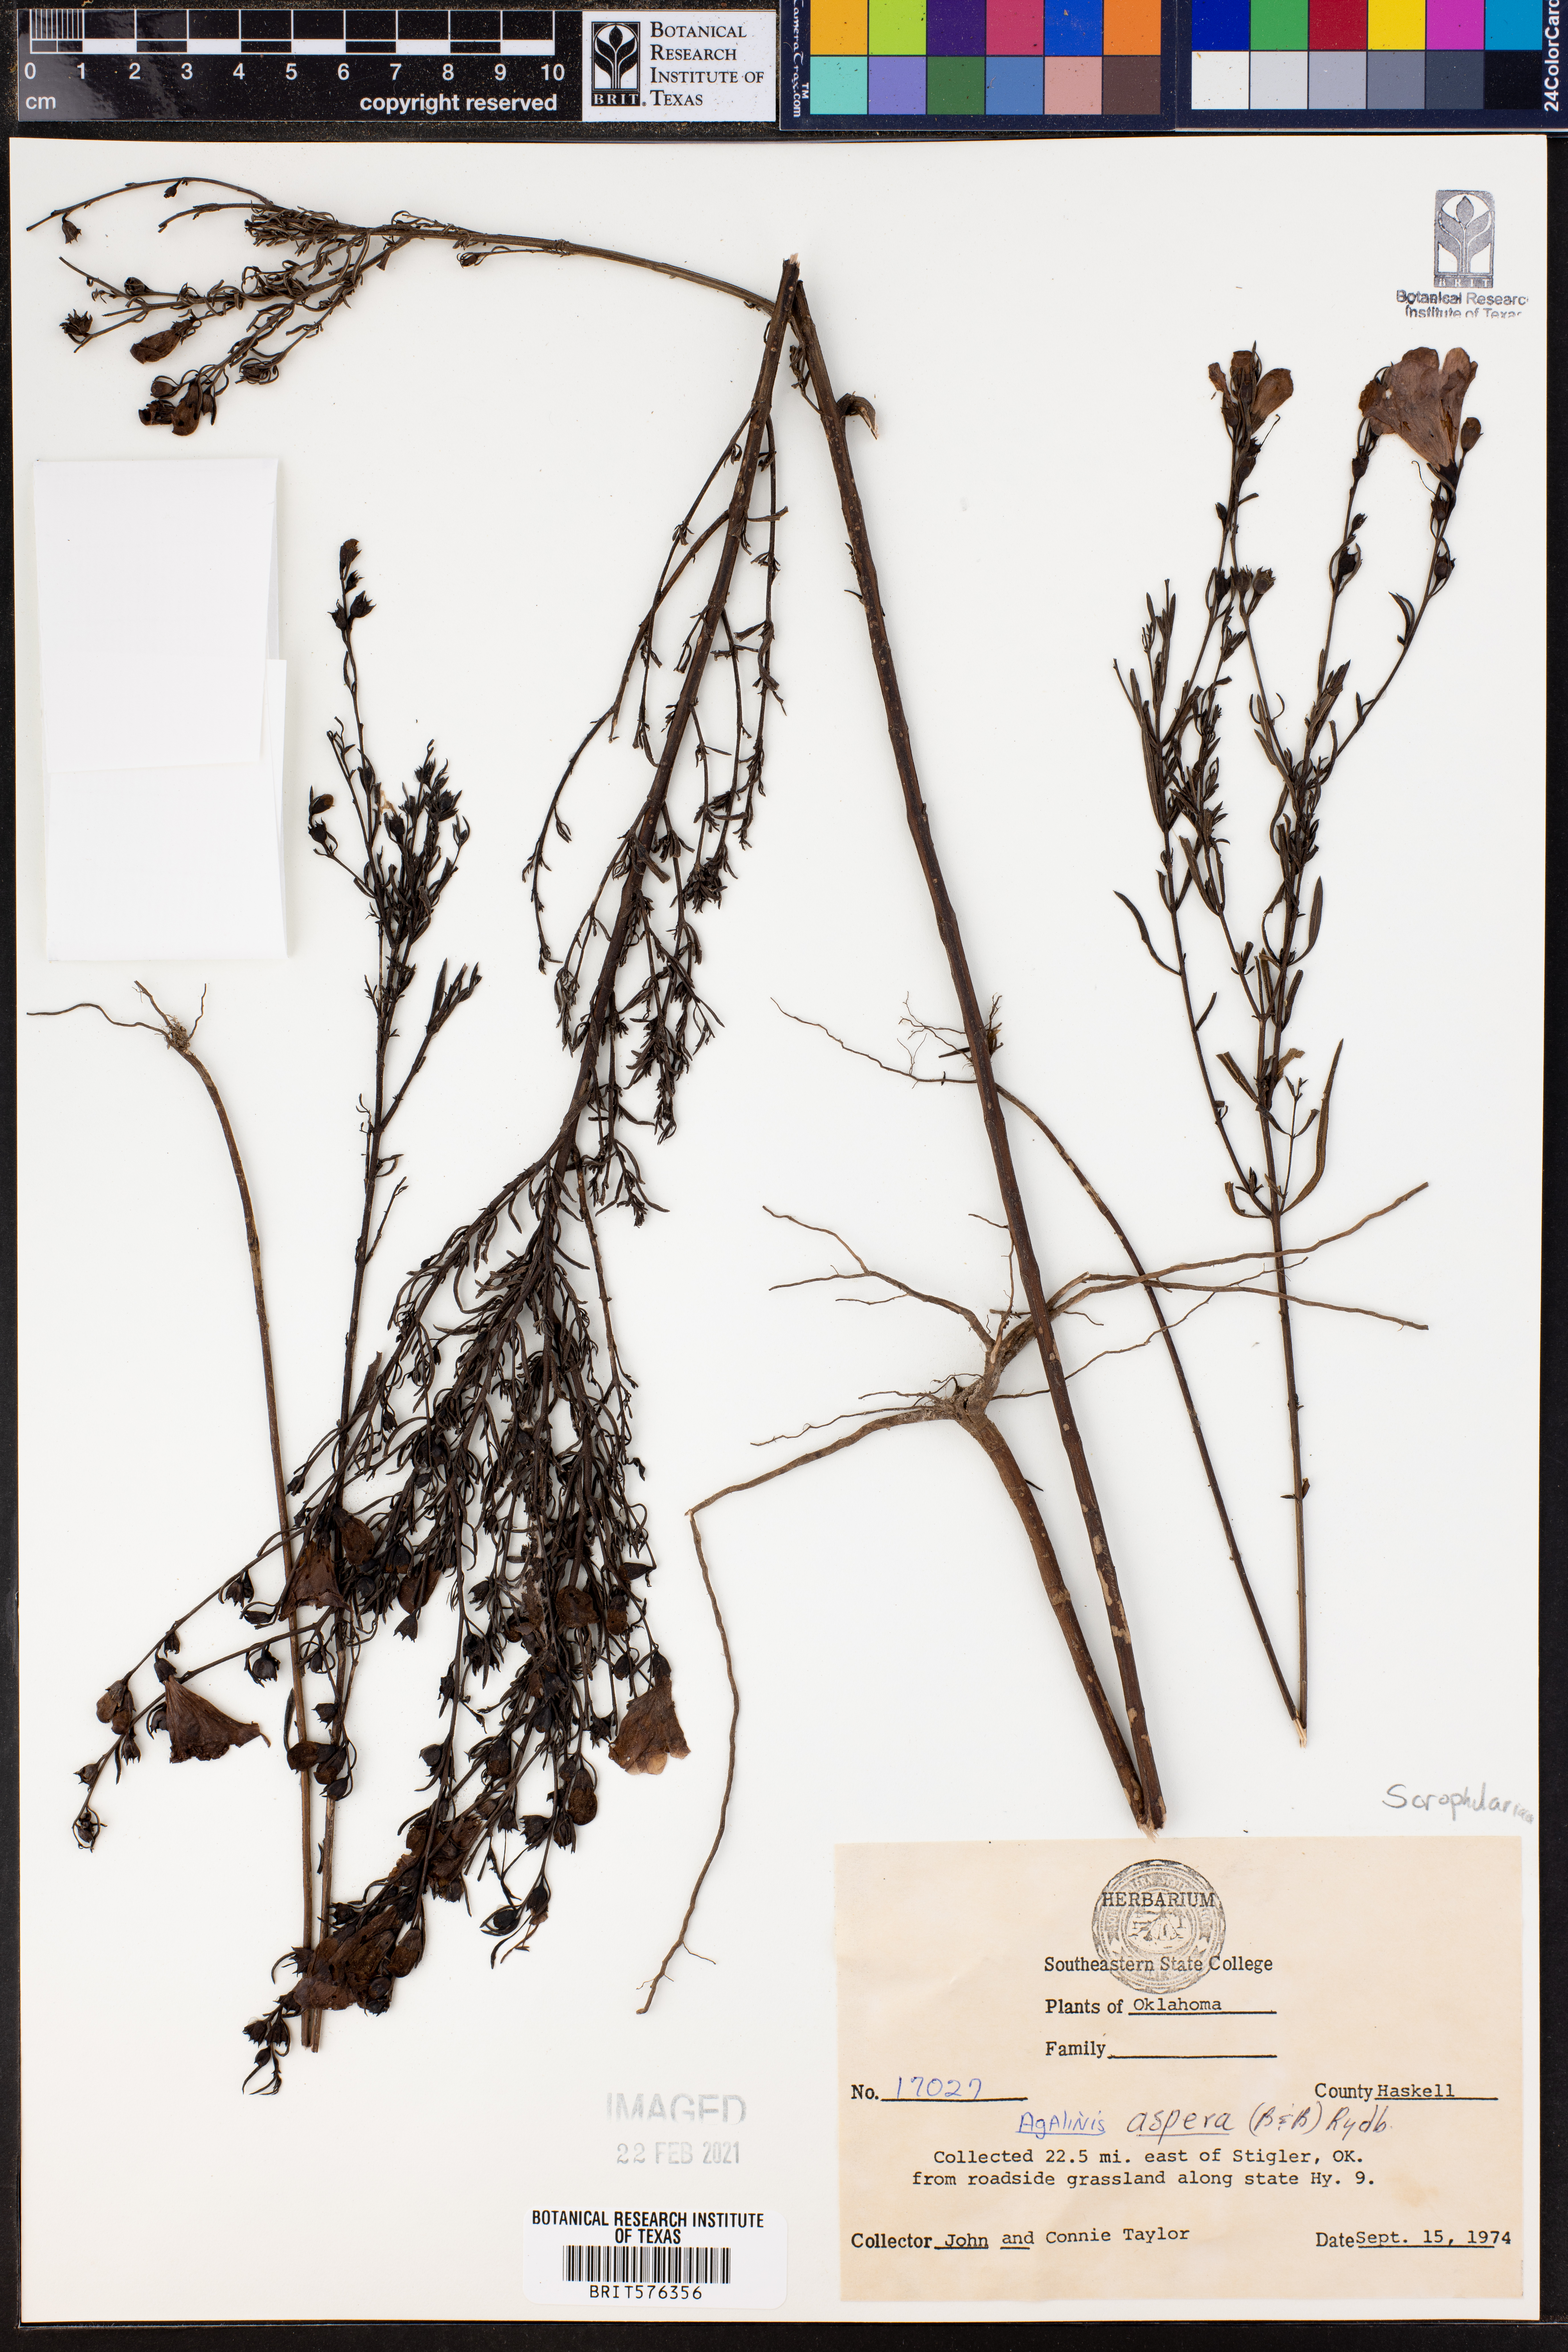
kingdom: Plantae
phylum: Tracheophyta
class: Magnoliopsida
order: Lamiales
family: Orobanchaceae
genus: Agalinis
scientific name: Agalinis aspera
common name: Rough agalinis
